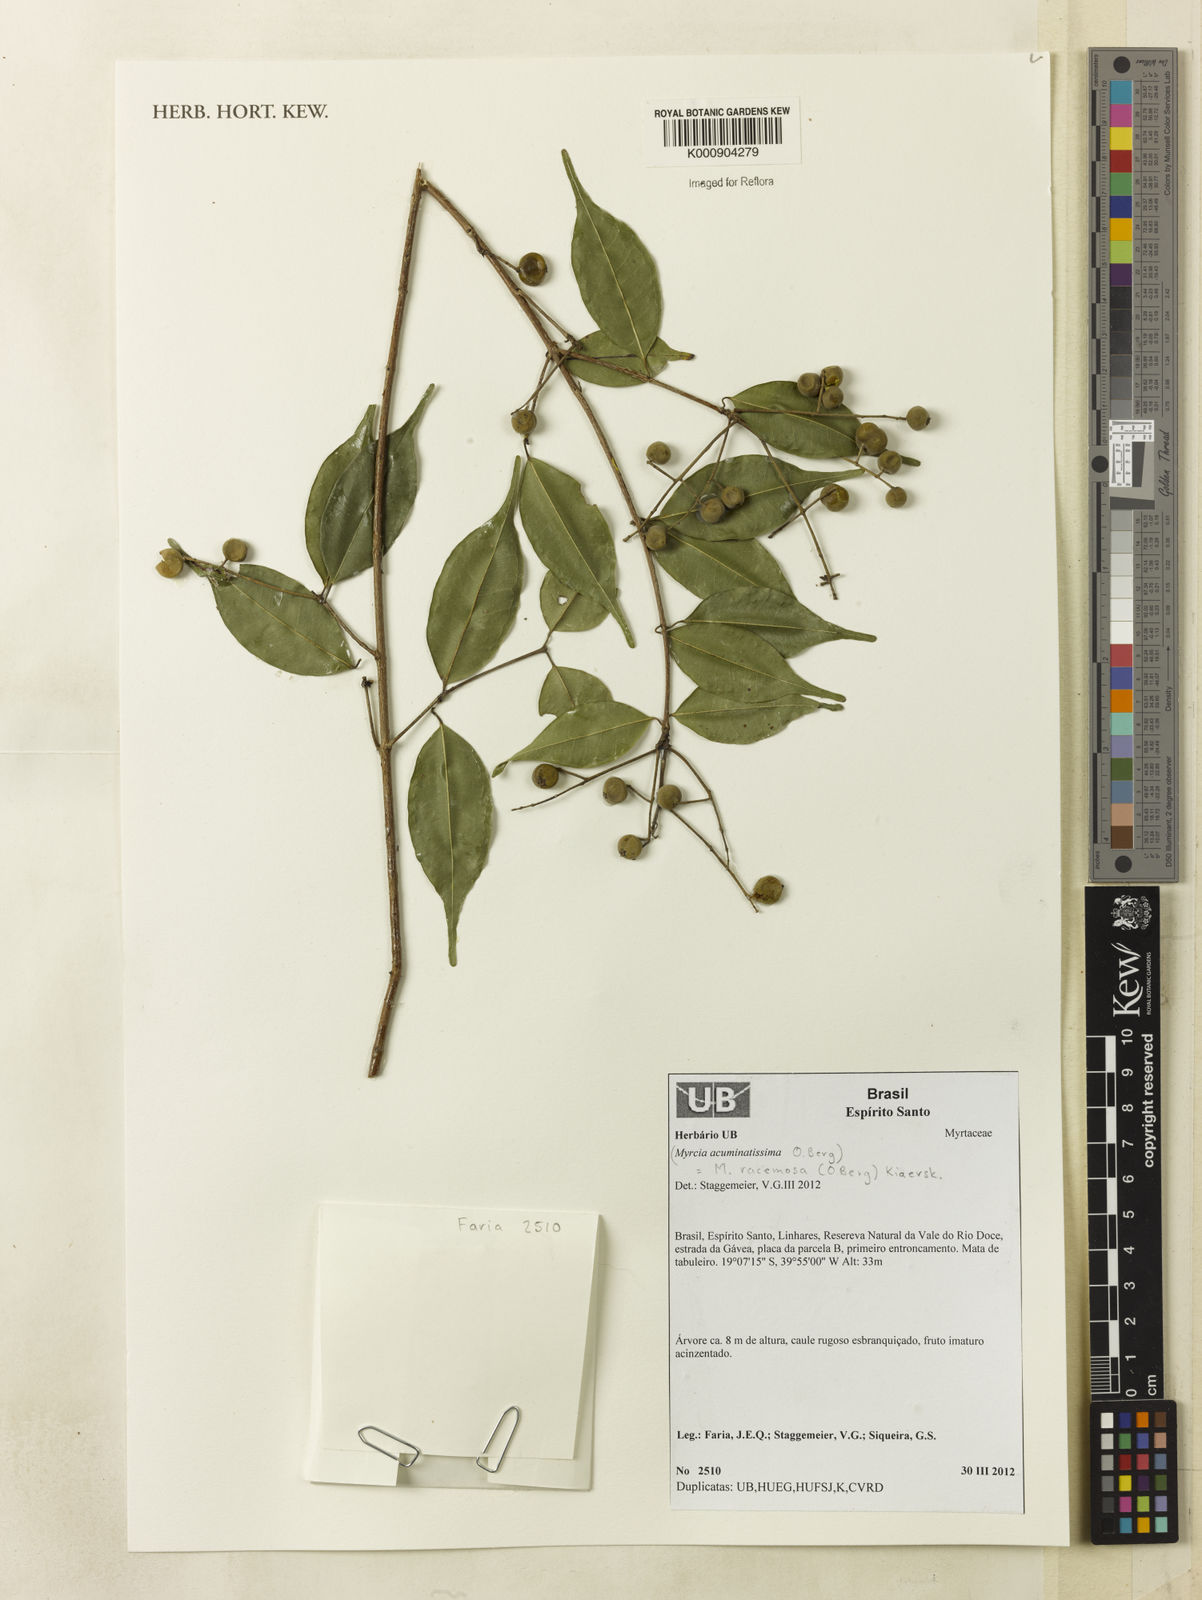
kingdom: Plantae
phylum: Tracheophyta
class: Magnoliopsida
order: Myrtales
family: Myrtaceae
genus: Myrcia
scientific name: Myrcia racemosa
